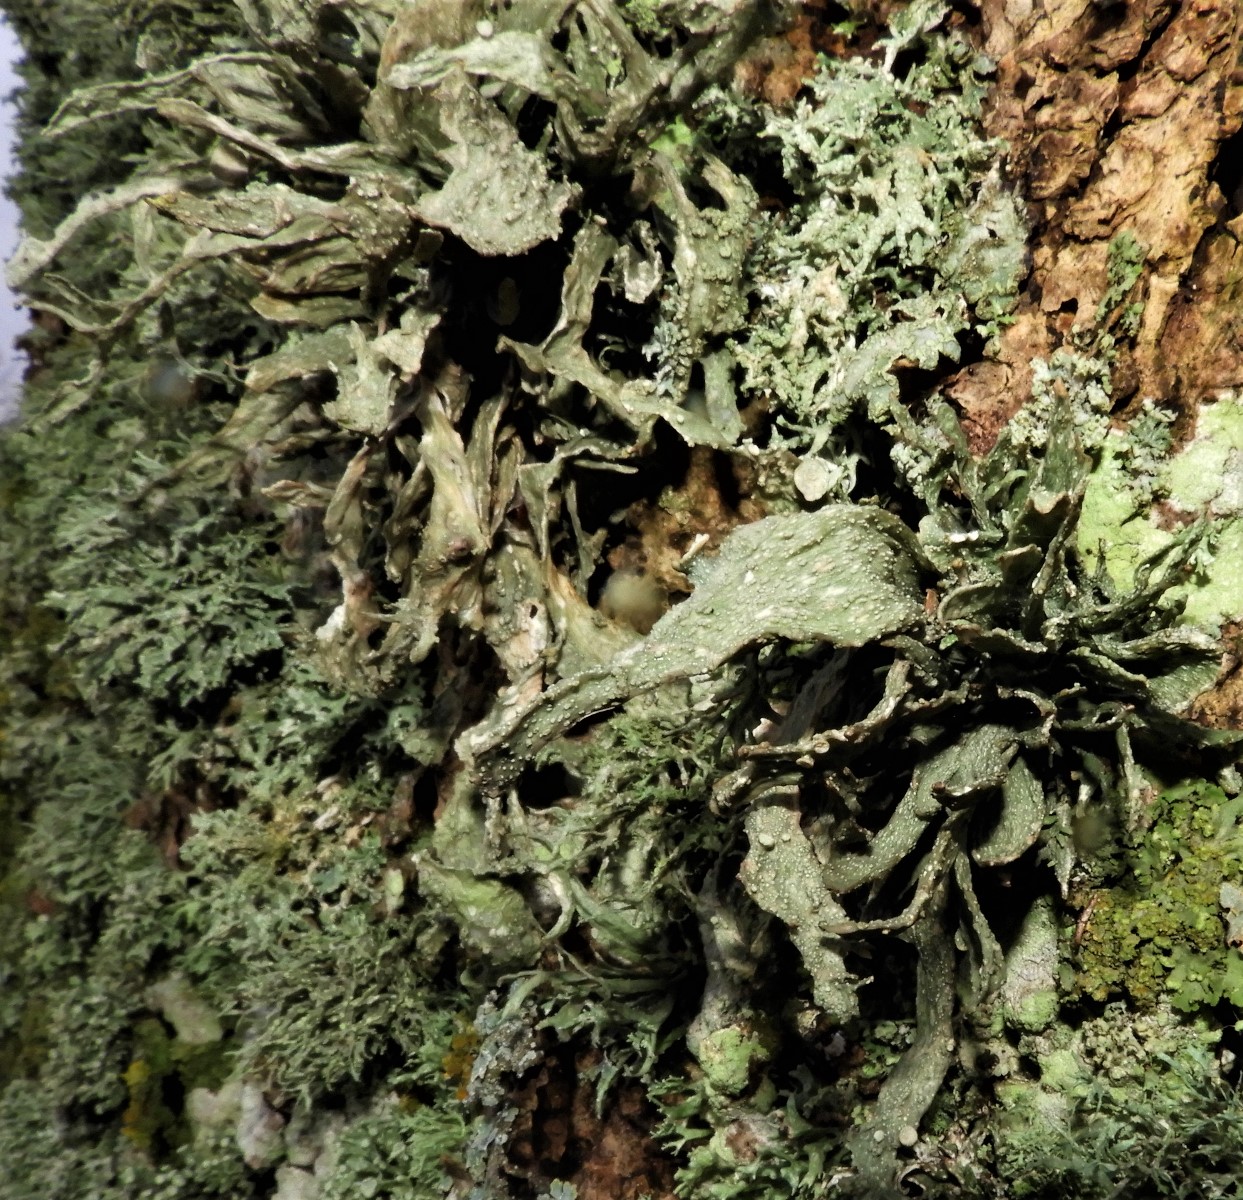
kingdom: Fungi
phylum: Ascomycota
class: Lecanoromycetes
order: Lecanorales
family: Ramalinaceae
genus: Ramalina
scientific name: Ramalina fraxinea
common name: stor grenlav
